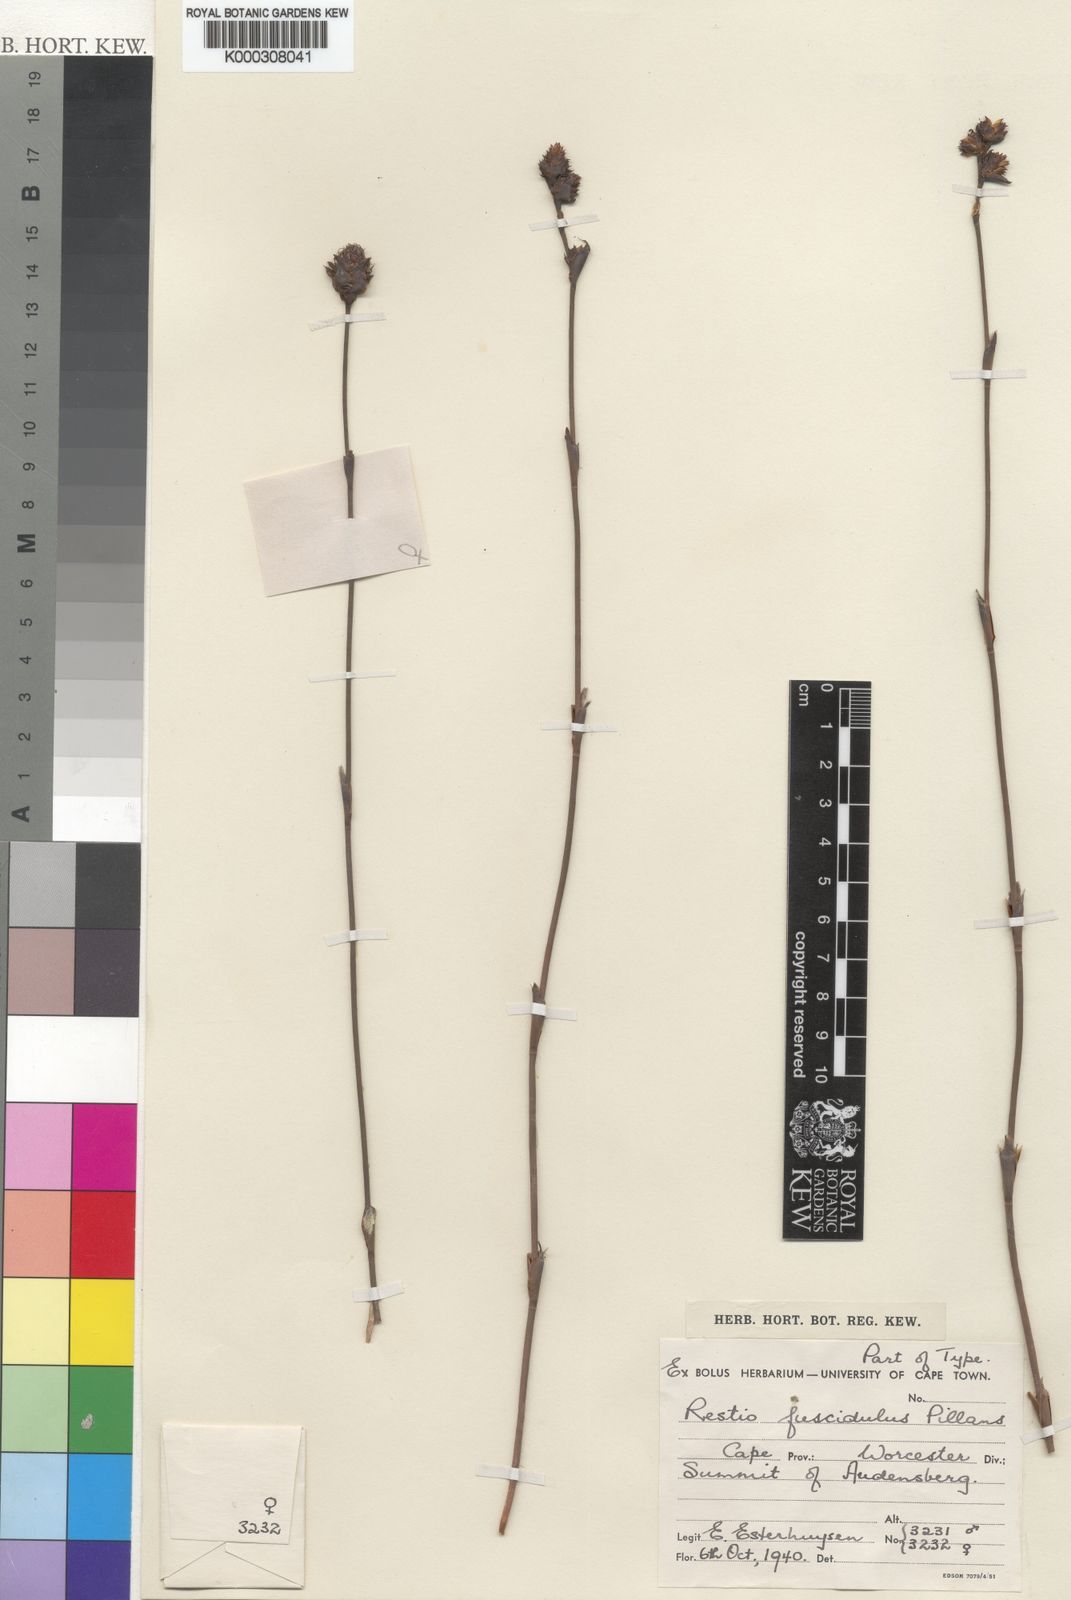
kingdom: Plantae
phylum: Tracheophyta
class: Liliopsida
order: Poales
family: Restionaceae
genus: Restio
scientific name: Restio fuscidulus
